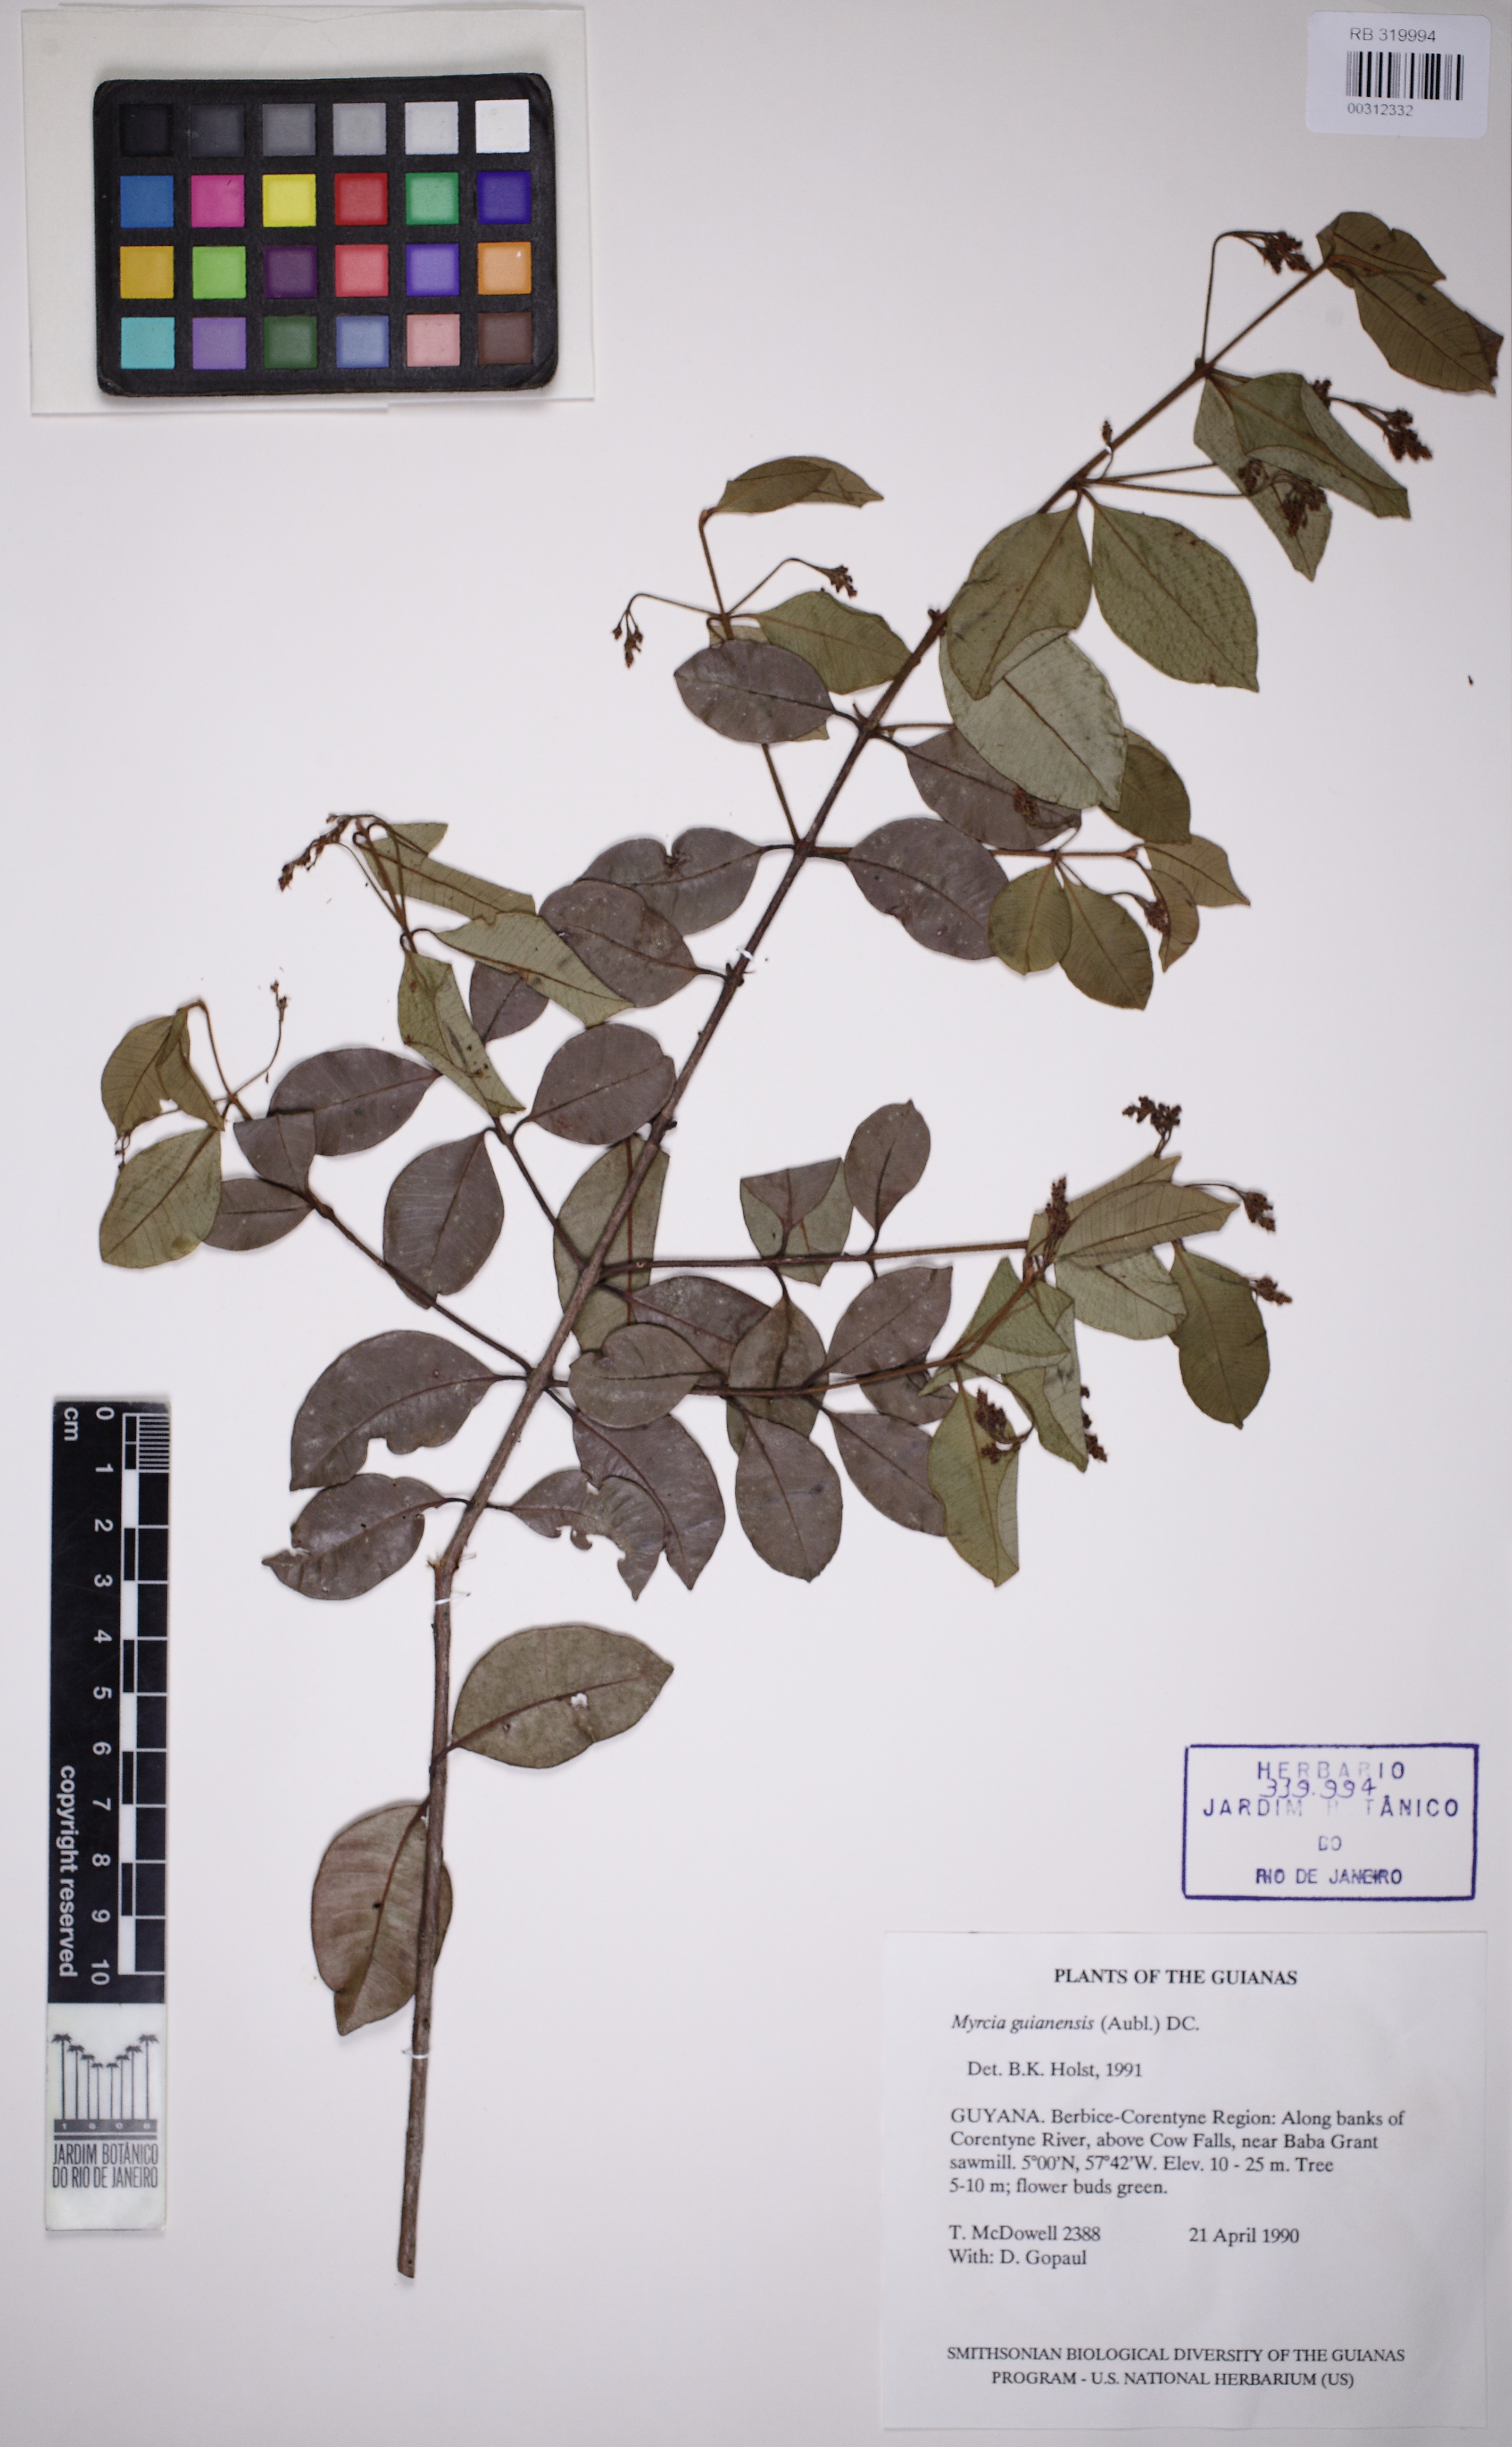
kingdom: Plantae
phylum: Tracheophyta
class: Magnoliopsida
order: Myrtales
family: Myrtaceae
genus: Myrcia
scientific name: Myrcia guianensis
